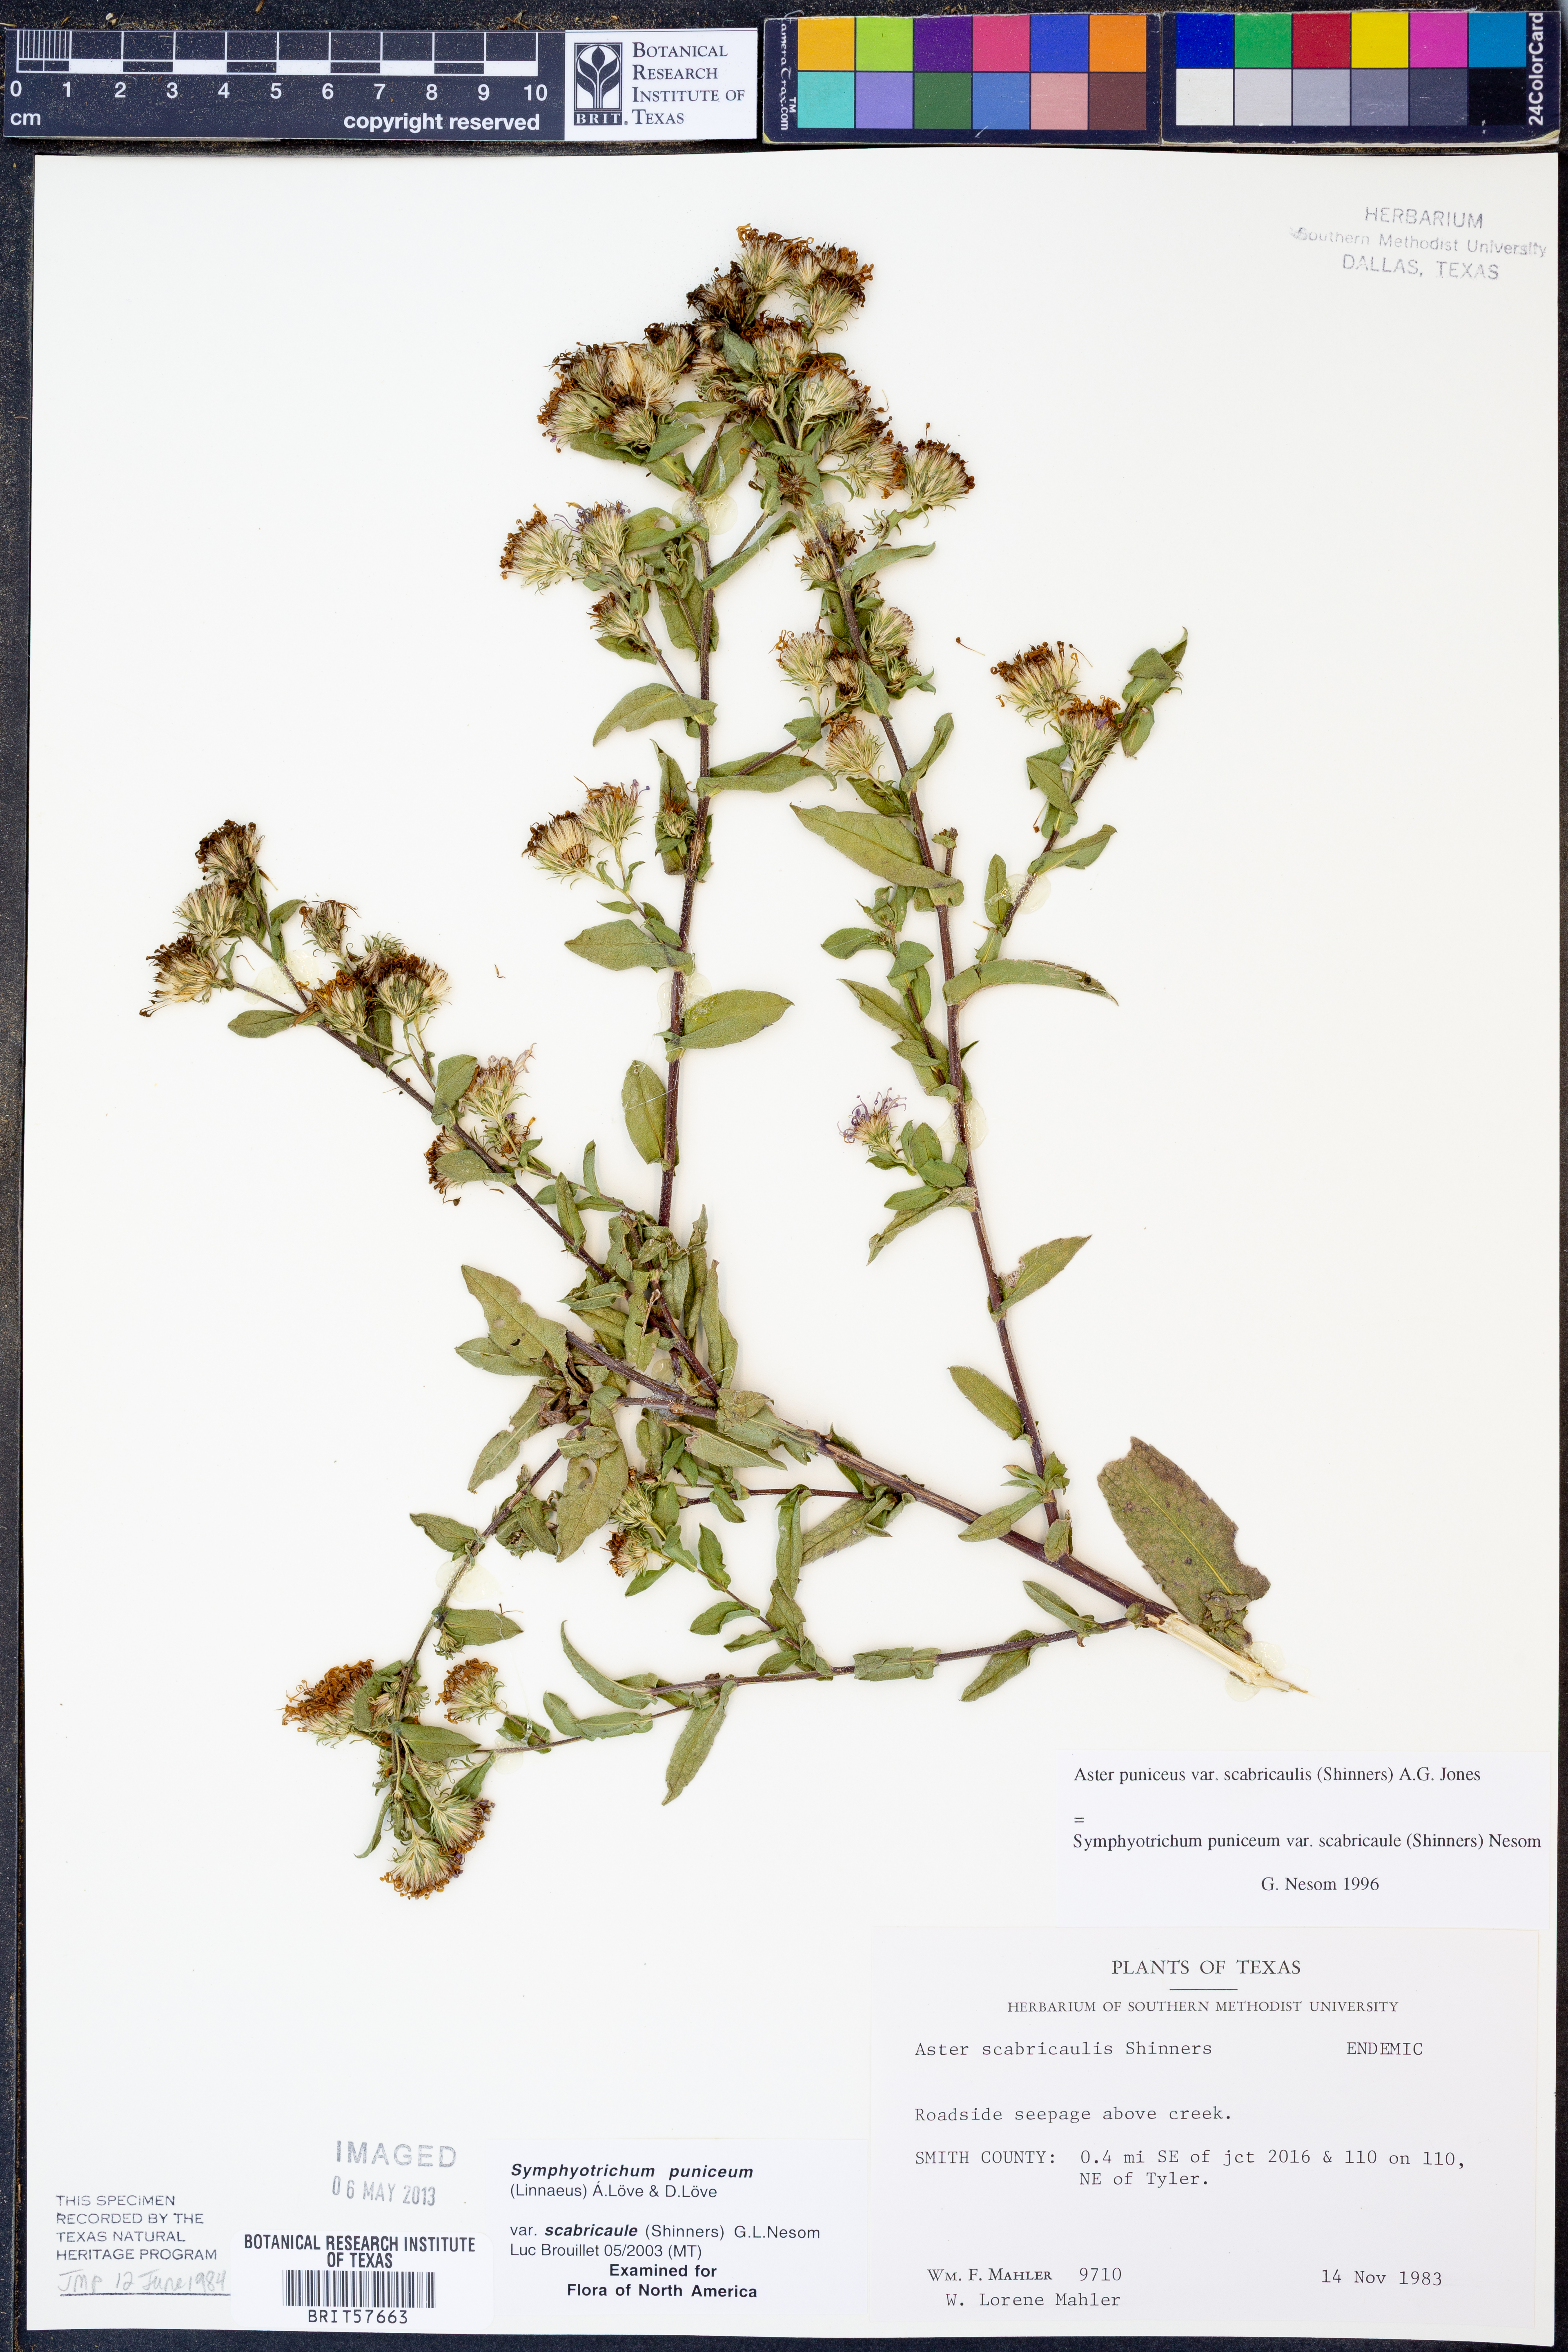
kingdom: Plantae
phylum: Tracheophyta
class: Magnoliopsida
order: Asterales
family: Asteraceae
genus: Symphyotrichum
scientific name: Symphyotrichum puniceum
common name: Bog aster
